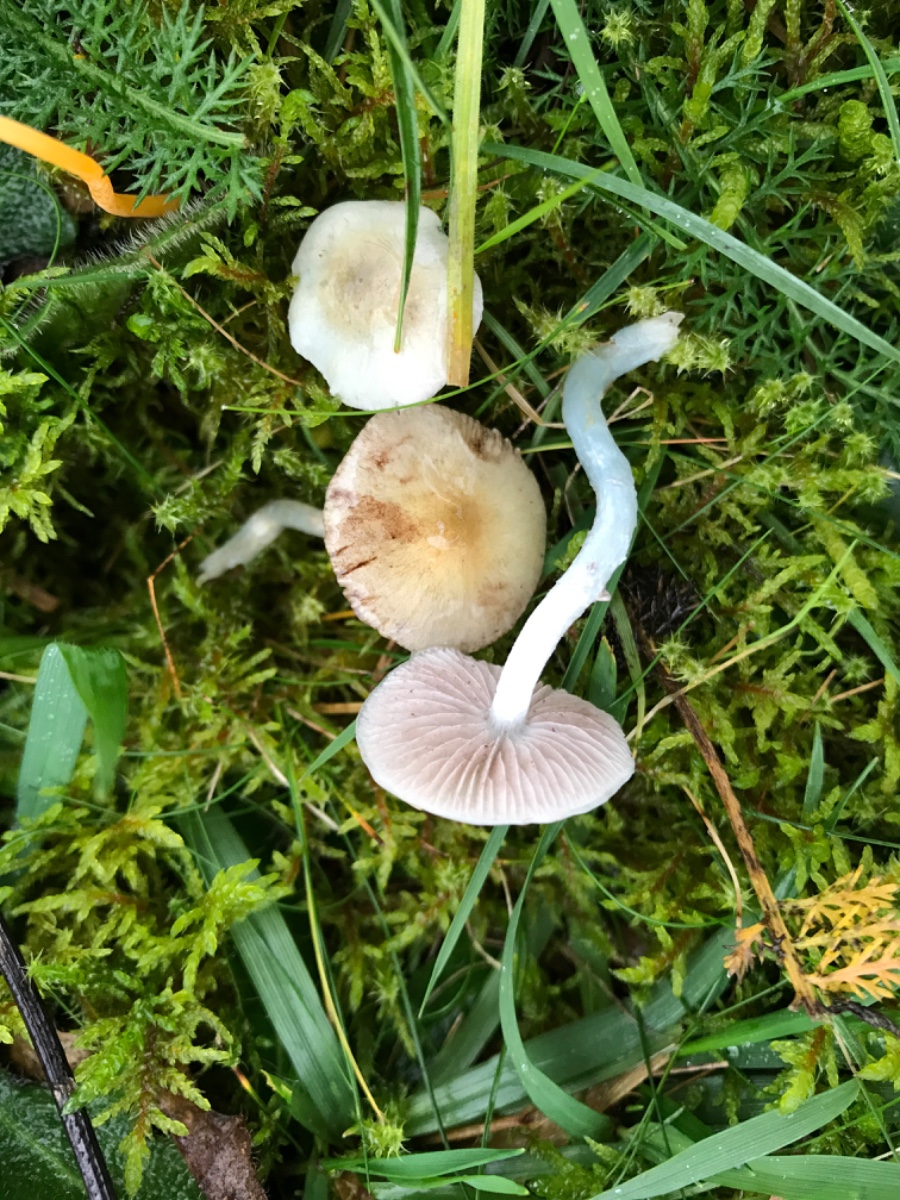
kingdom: Fungi
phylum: Basidiomycota
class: Agaricomycetes
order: Agaricales
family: Strophariaceae
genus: Stropharia
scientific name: Stropharia cyanea
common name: blågrøn bredblad
